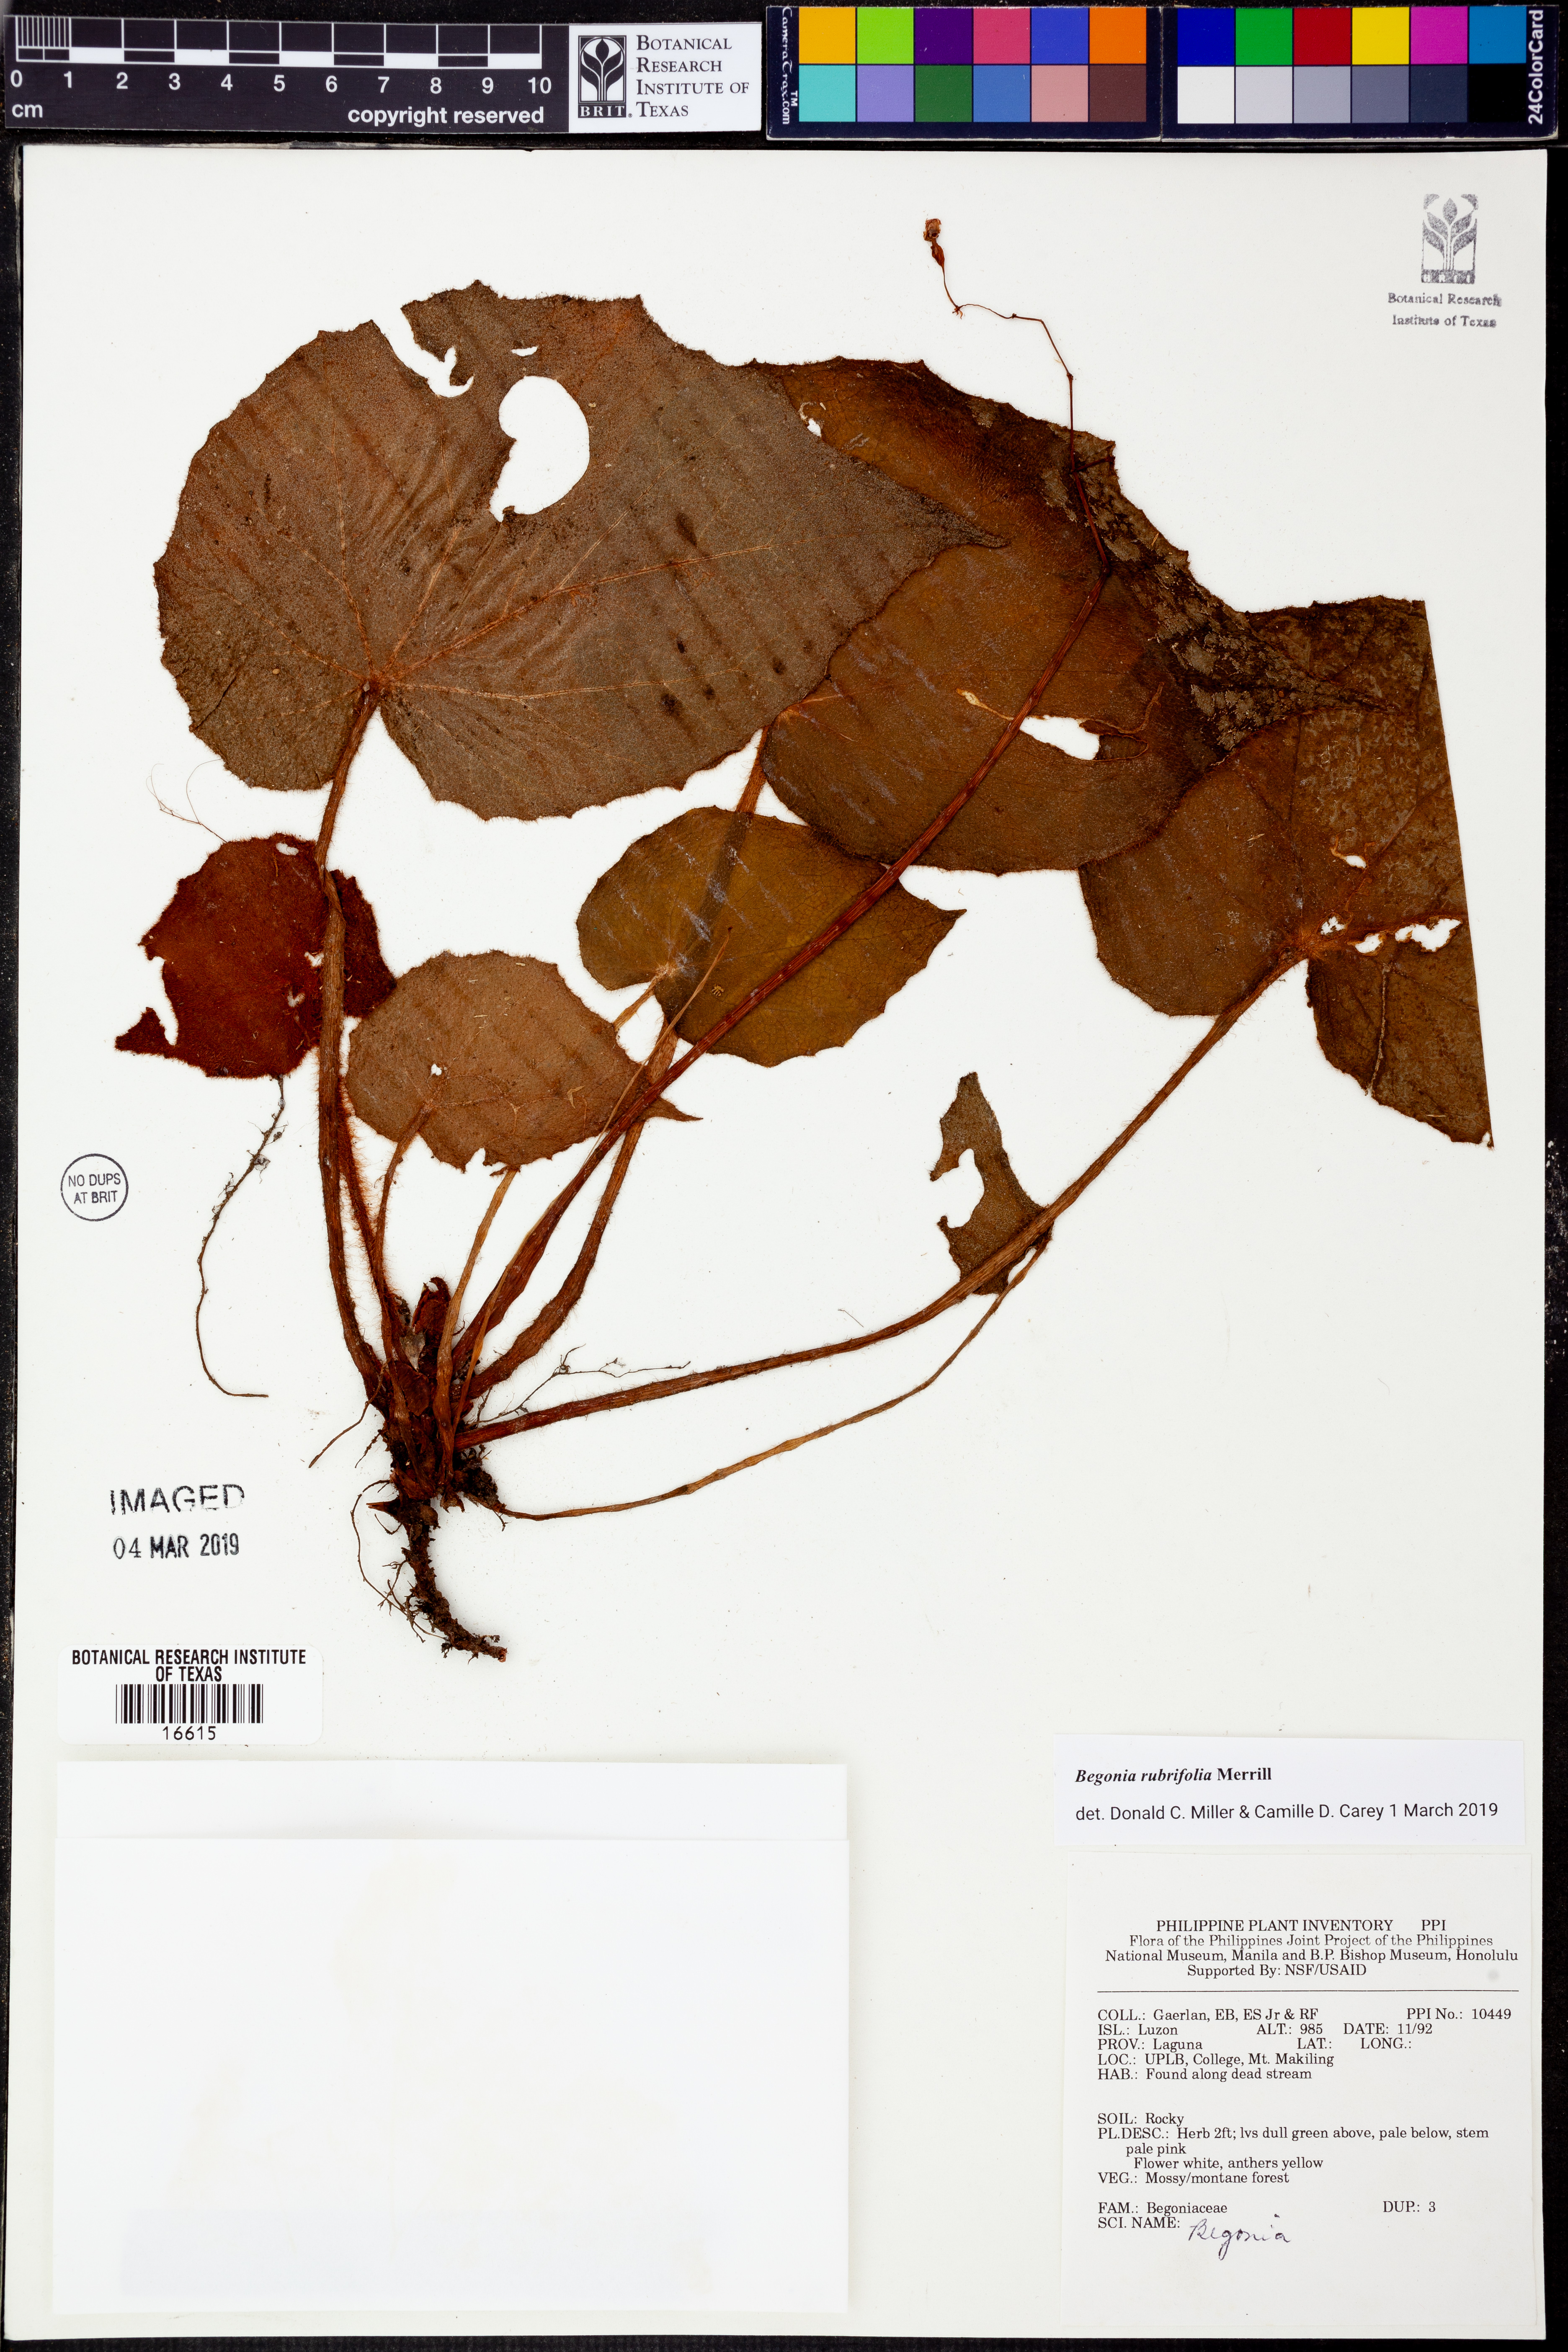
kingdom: Plantae
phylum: Tracheophyta
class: Magnoliopsida
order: Cucurbitales
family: Begoniaceae
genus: Begonia
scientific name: Begonia rubrifolia
